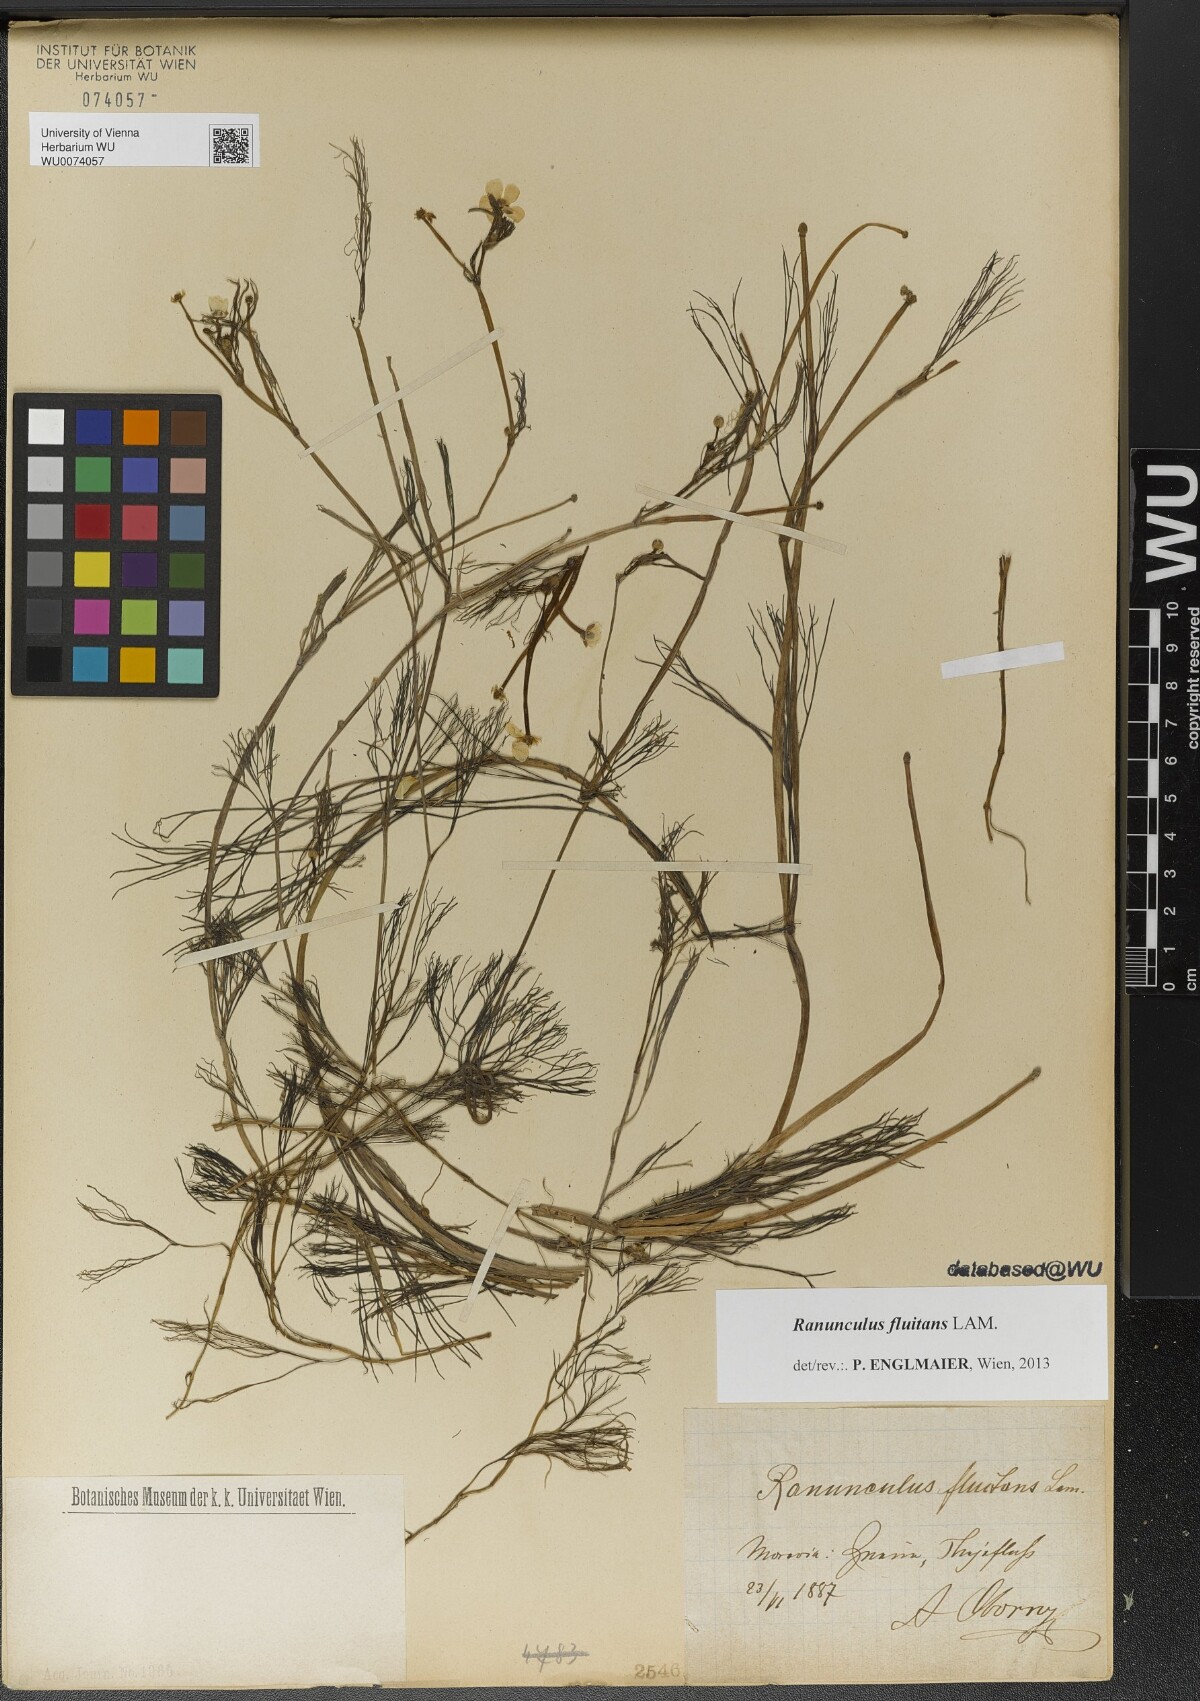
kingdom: Plantae
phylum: Tracheophyta
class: Magnoliopsida
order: Ranunculales
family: Ranunculaceae
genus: Ranunculus
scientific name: Ranunculus fluitans
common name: River water-crowfoot
